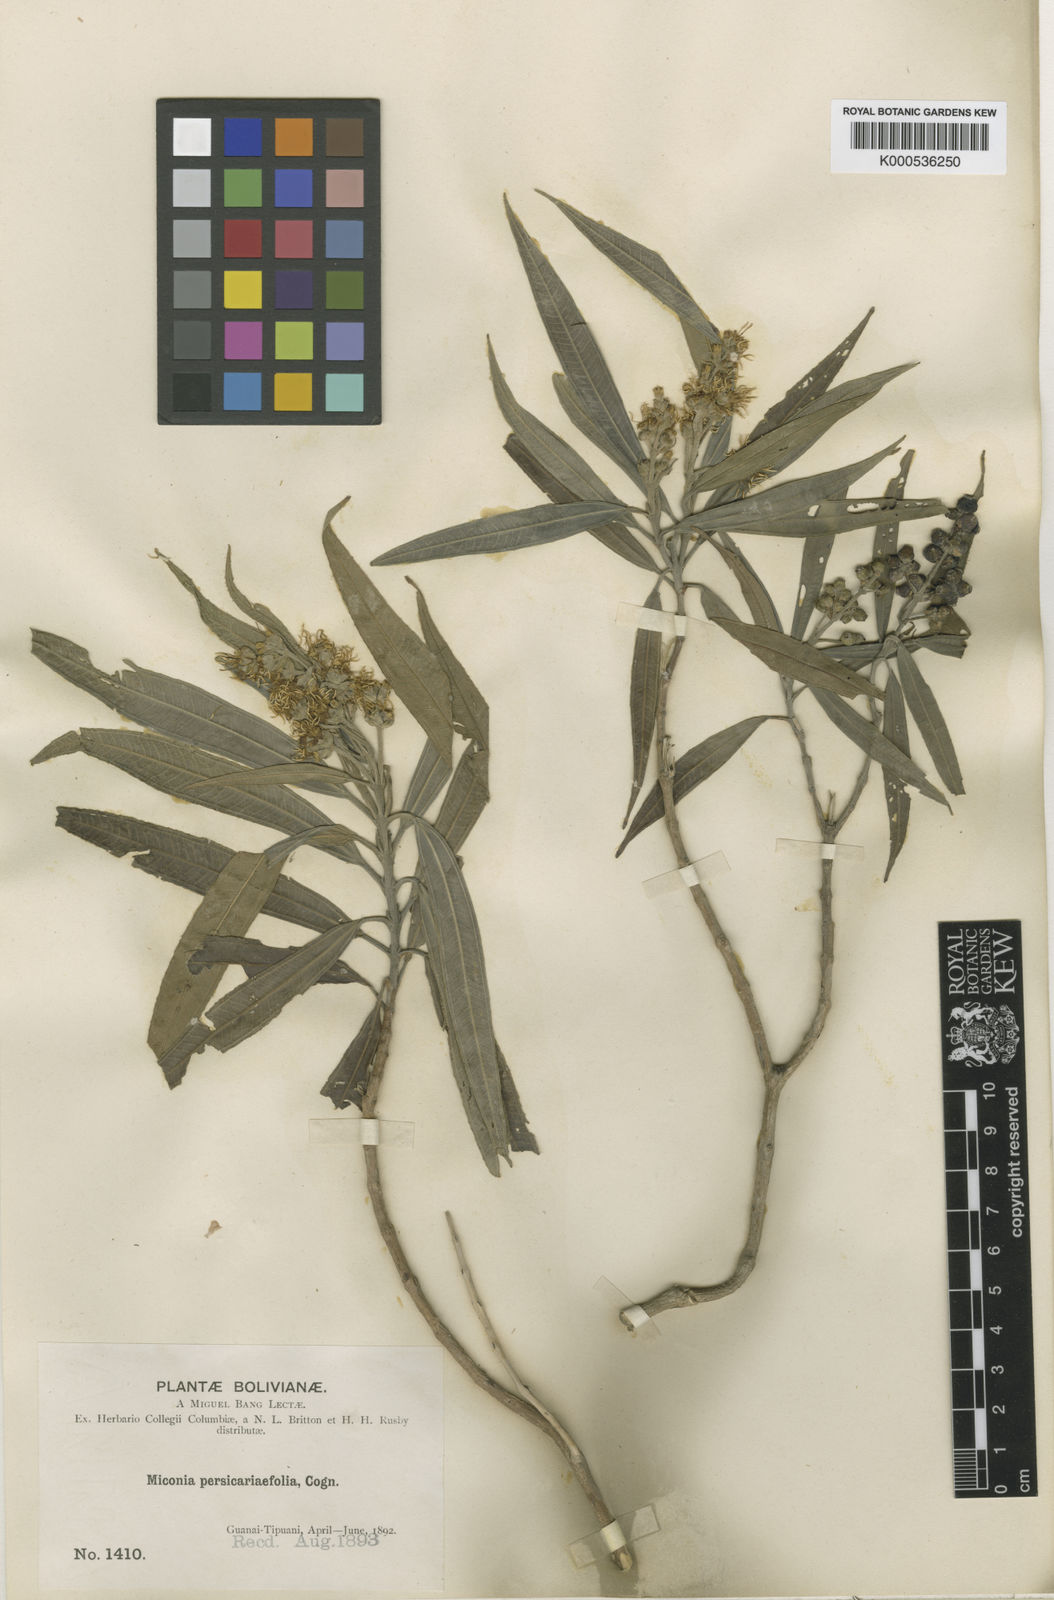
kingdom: Plantae
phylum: Tracheophyta
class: Magnoliopsida
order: Myrtales
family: Melastomataceae
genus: Miconia
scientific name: Miconia
